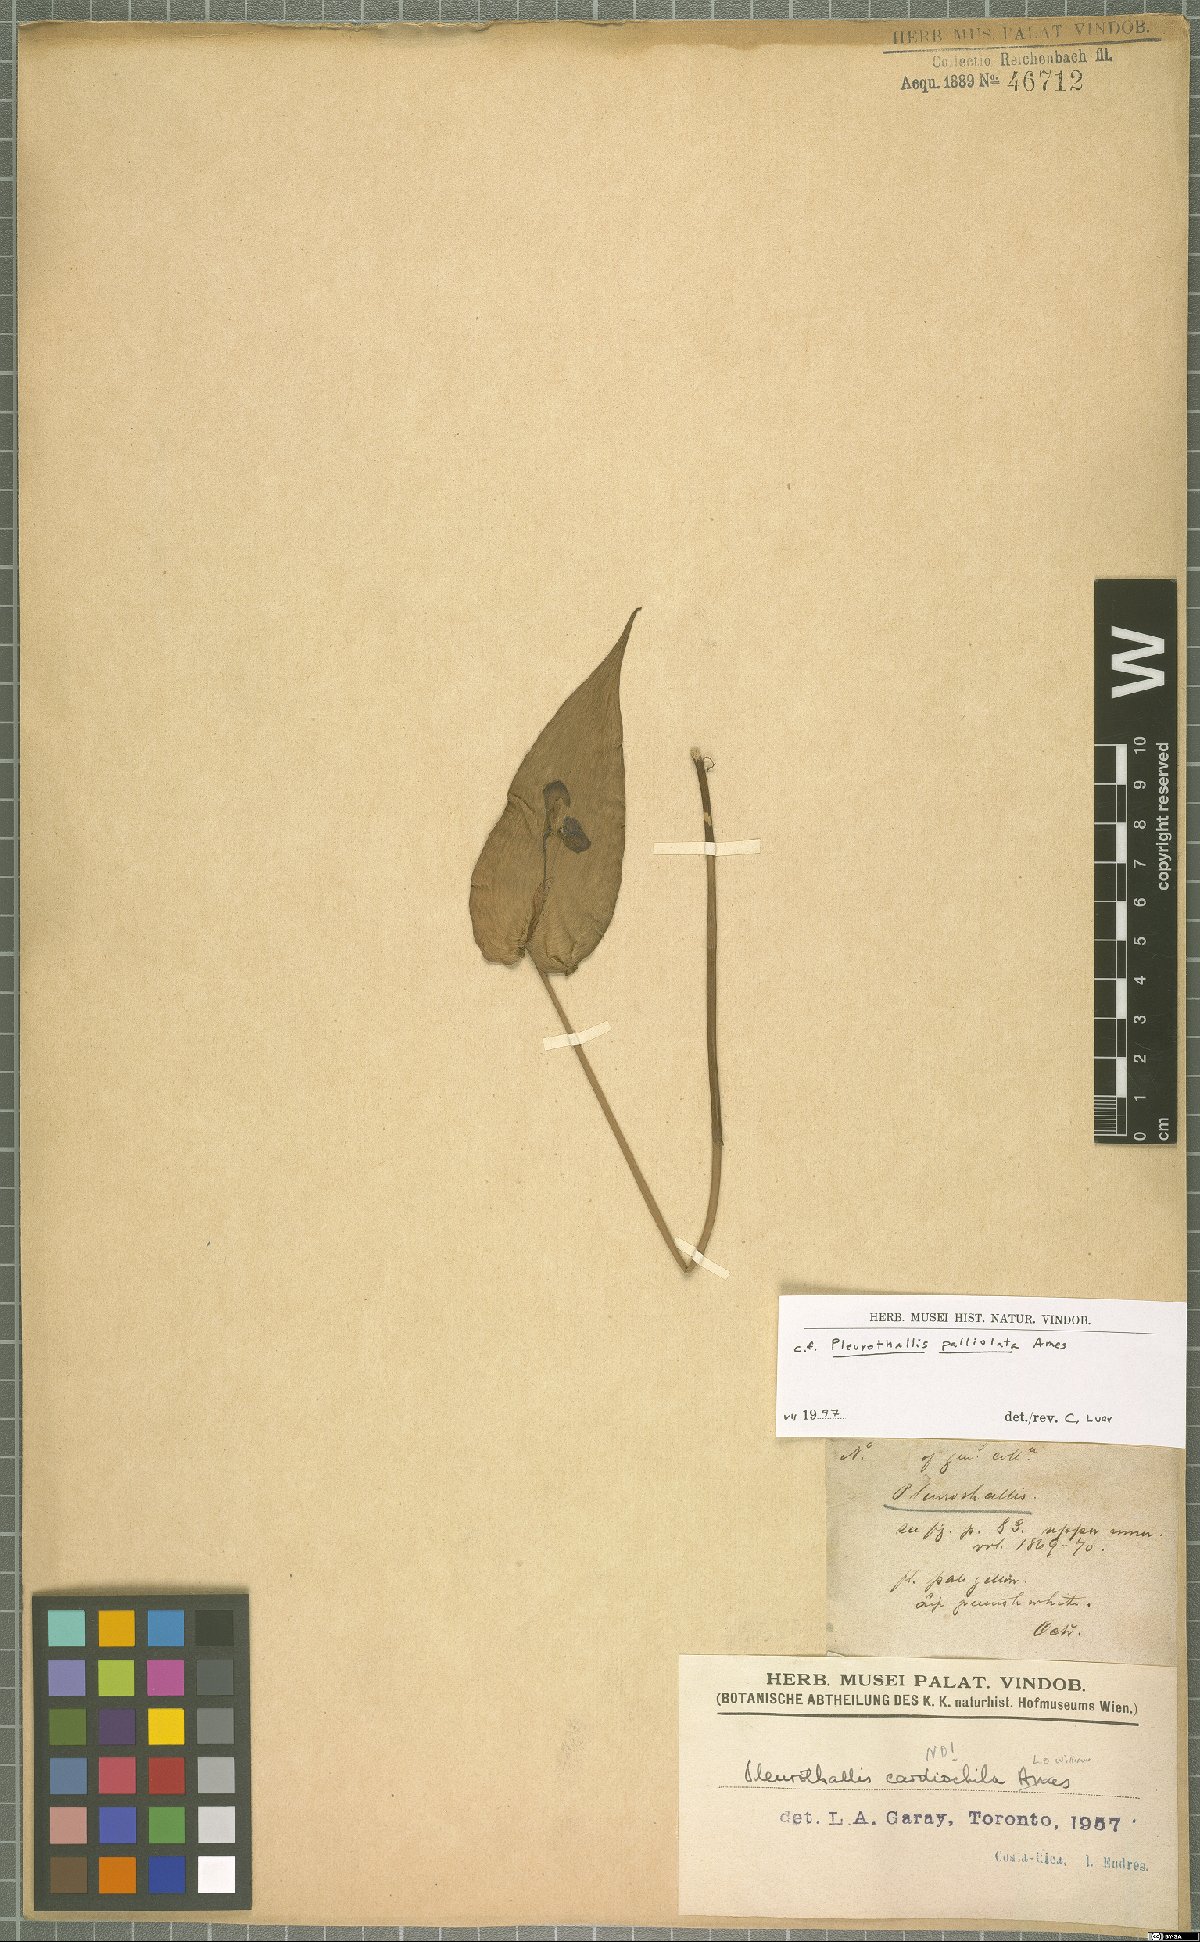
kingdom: Plantae
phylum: Tracheophyta
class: Liliopsida
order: Asparagales
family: Orchidaceae
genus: Pleurothallis
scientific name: Pleurothallis palliolata
